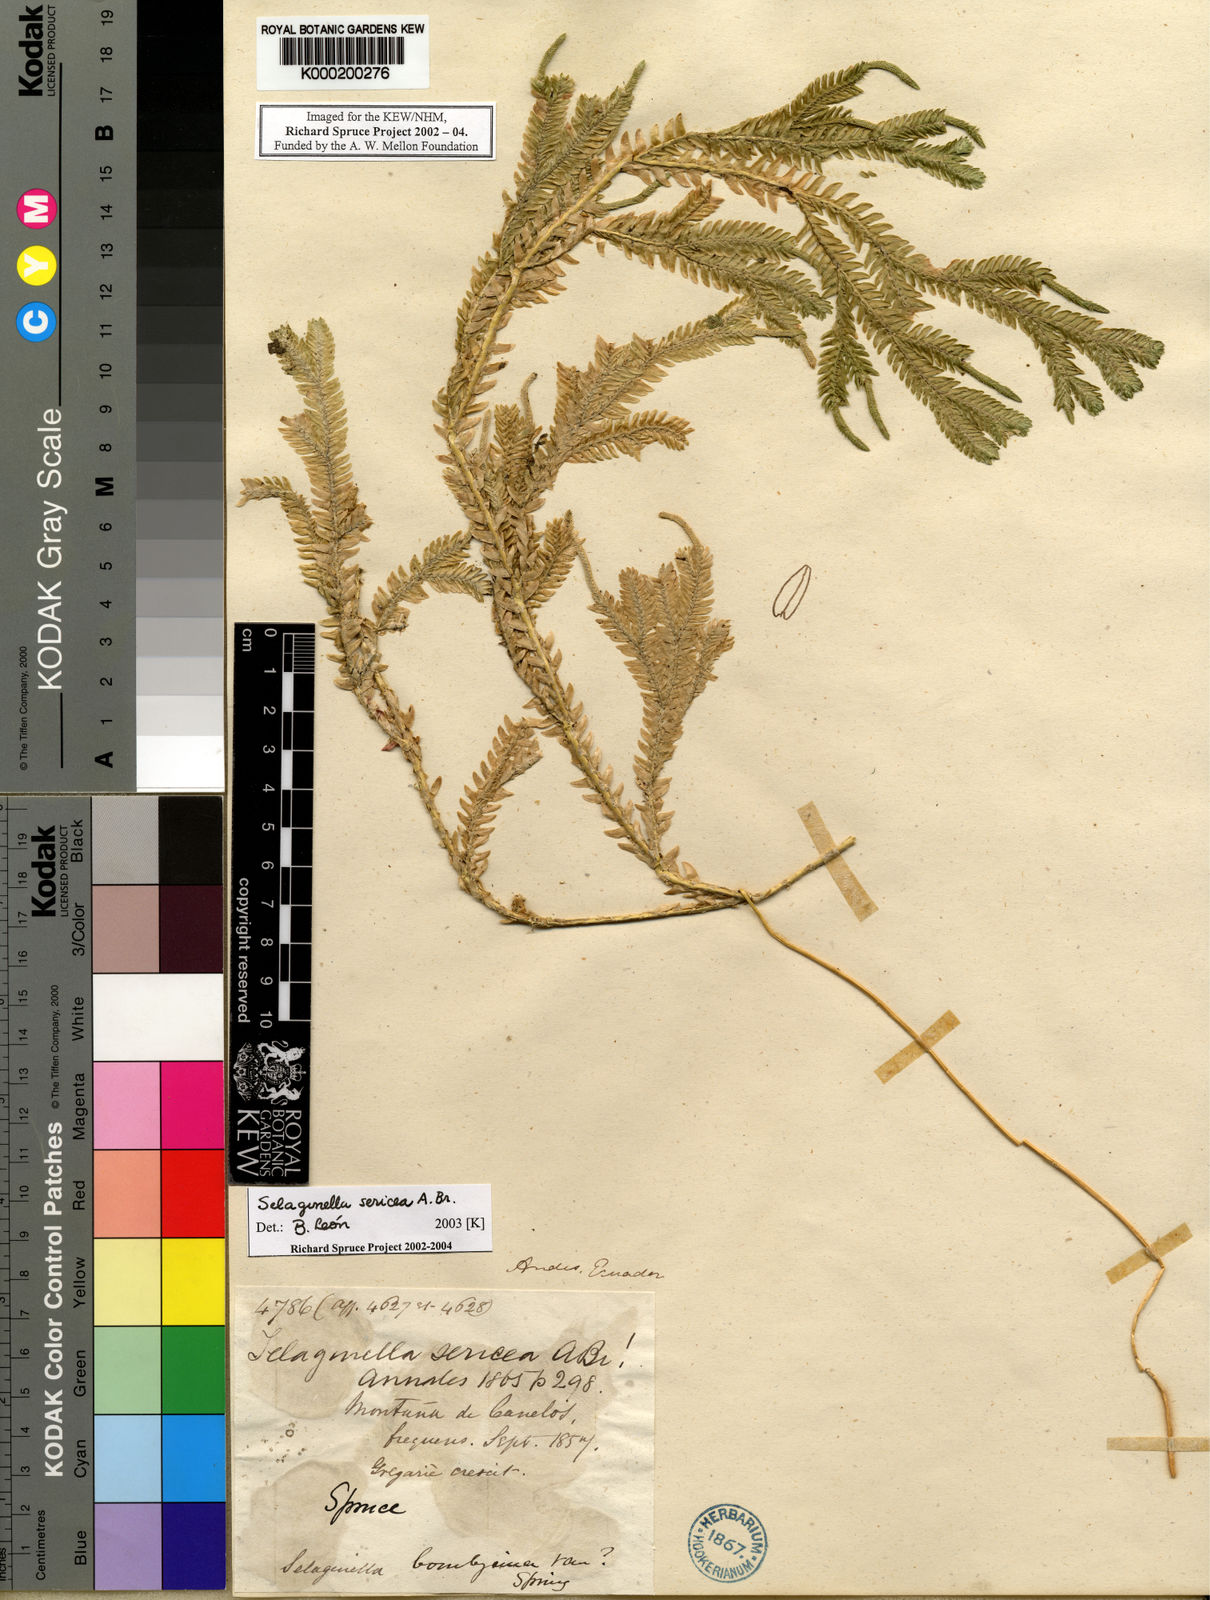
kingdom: Plantae
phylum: Tracheophyta
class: Lycopodiopsida
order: Selaginellales
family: Selaginellaceae
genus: Selaginella
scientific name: Selaginella
